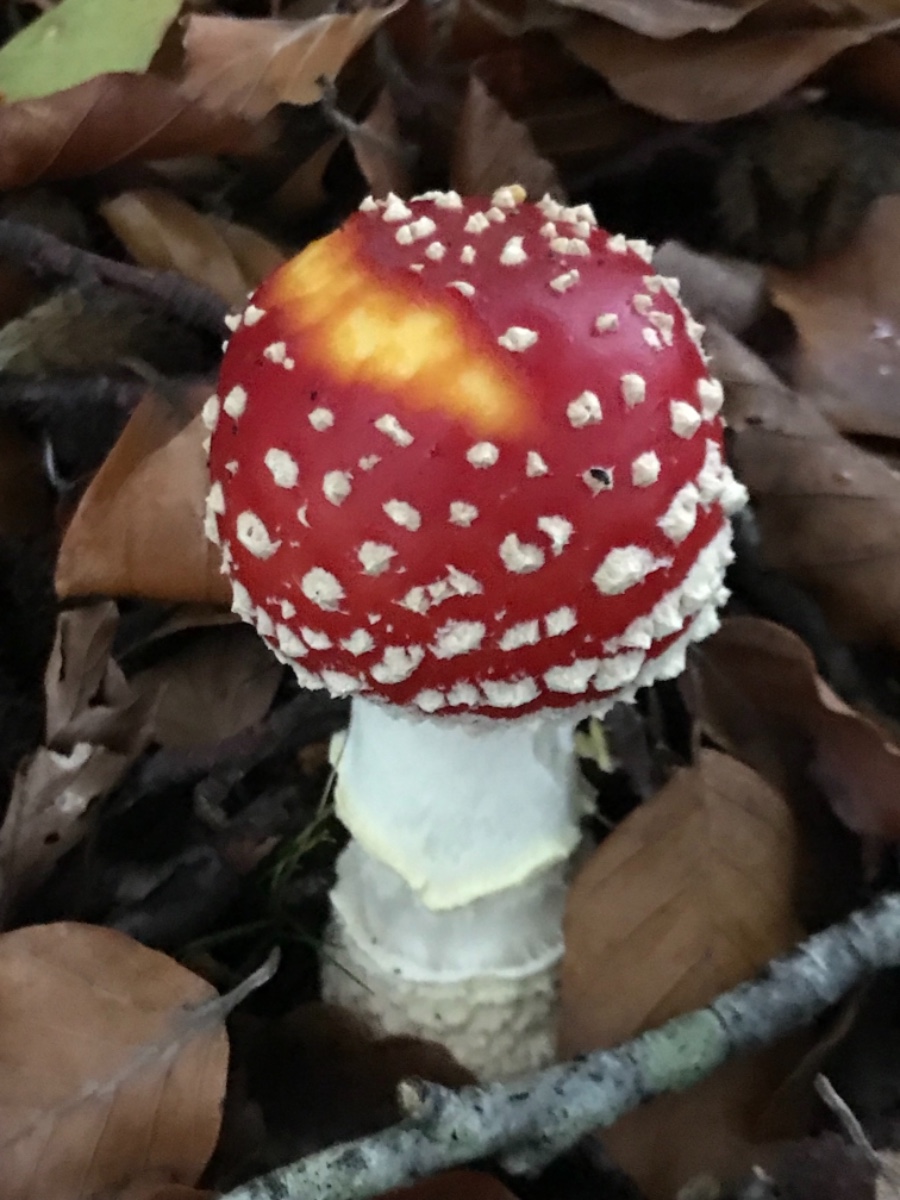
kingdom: Fungi
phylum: Basidiomycota
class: Agaricomycetes
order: Agaricales
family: Amanitaceae
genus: Amanita
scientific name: Amanita muscaria
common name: rød fluesvamp
